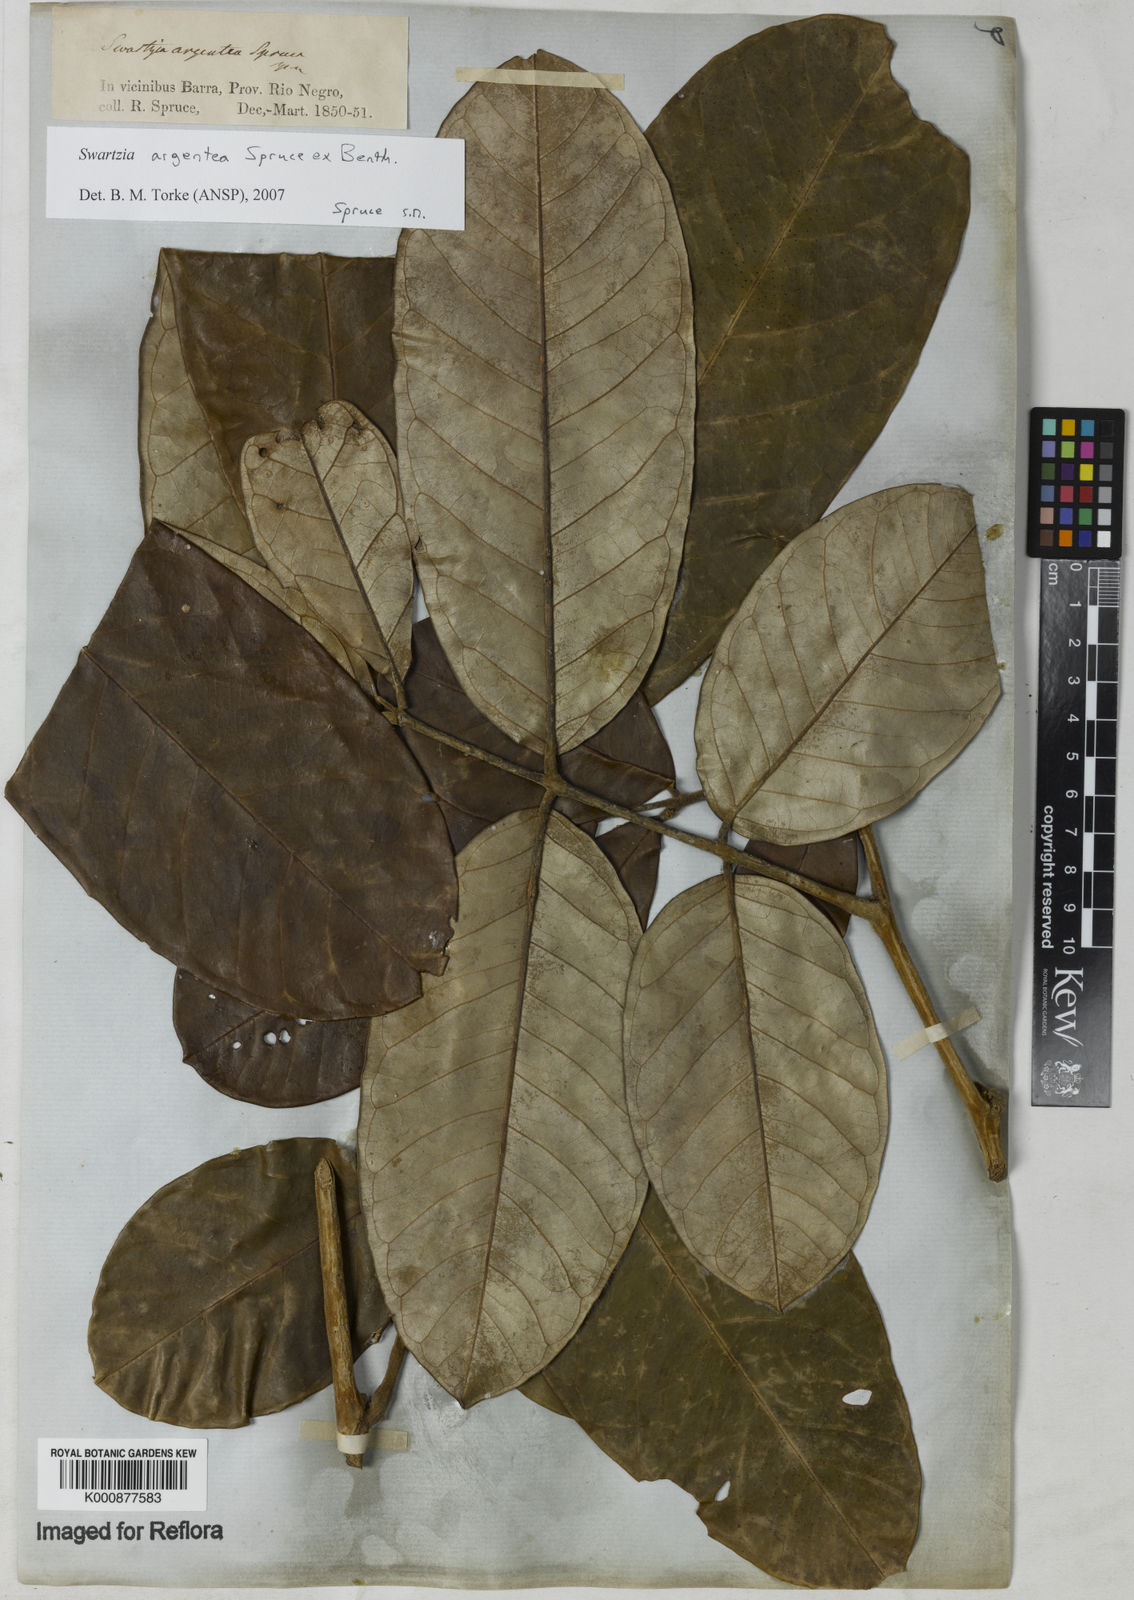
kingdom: Plantae
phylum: Tracheophyta
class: Magnoliopsida
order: Fabales
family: Fabaceae
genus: Swartzia
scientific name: Swartzia argentea
